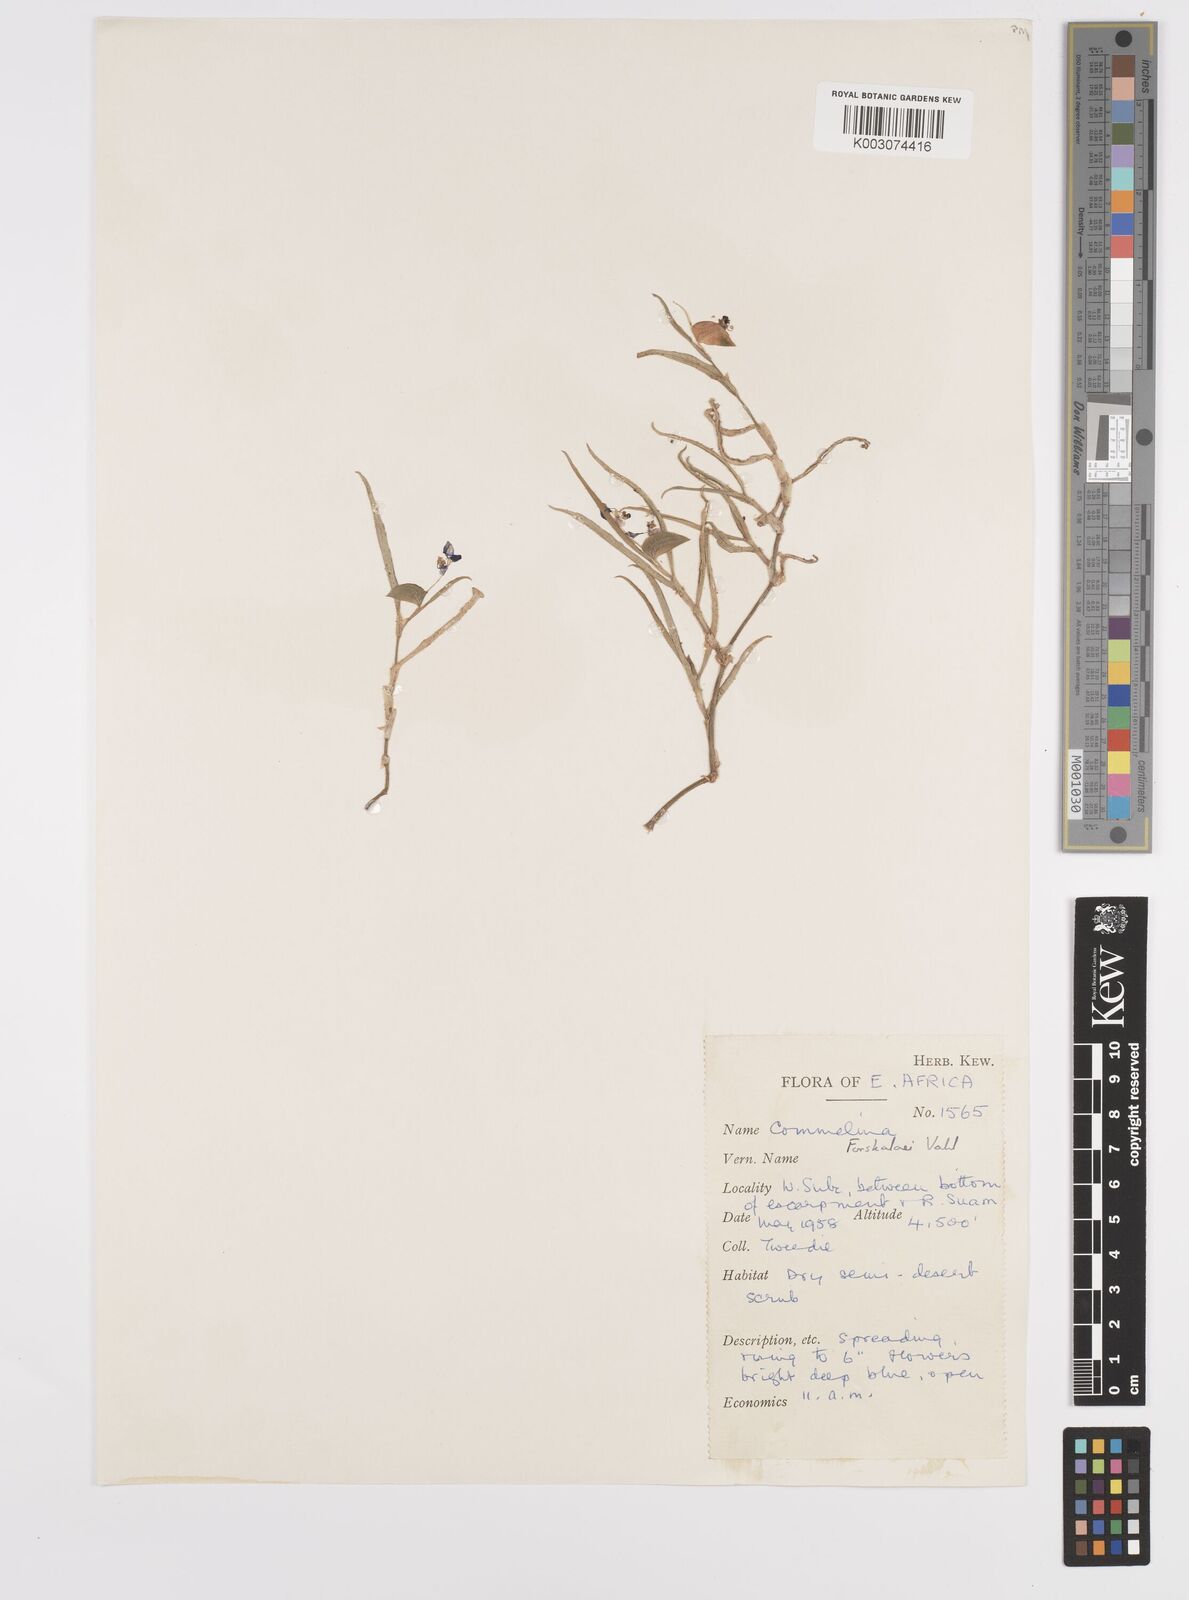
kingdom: Plantae
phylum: Tracheophyta
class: Liliopsida
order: Commelinales
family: Commelinaceae
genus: Commelina
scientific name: Commelina forskaolii
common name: Rat's ear
